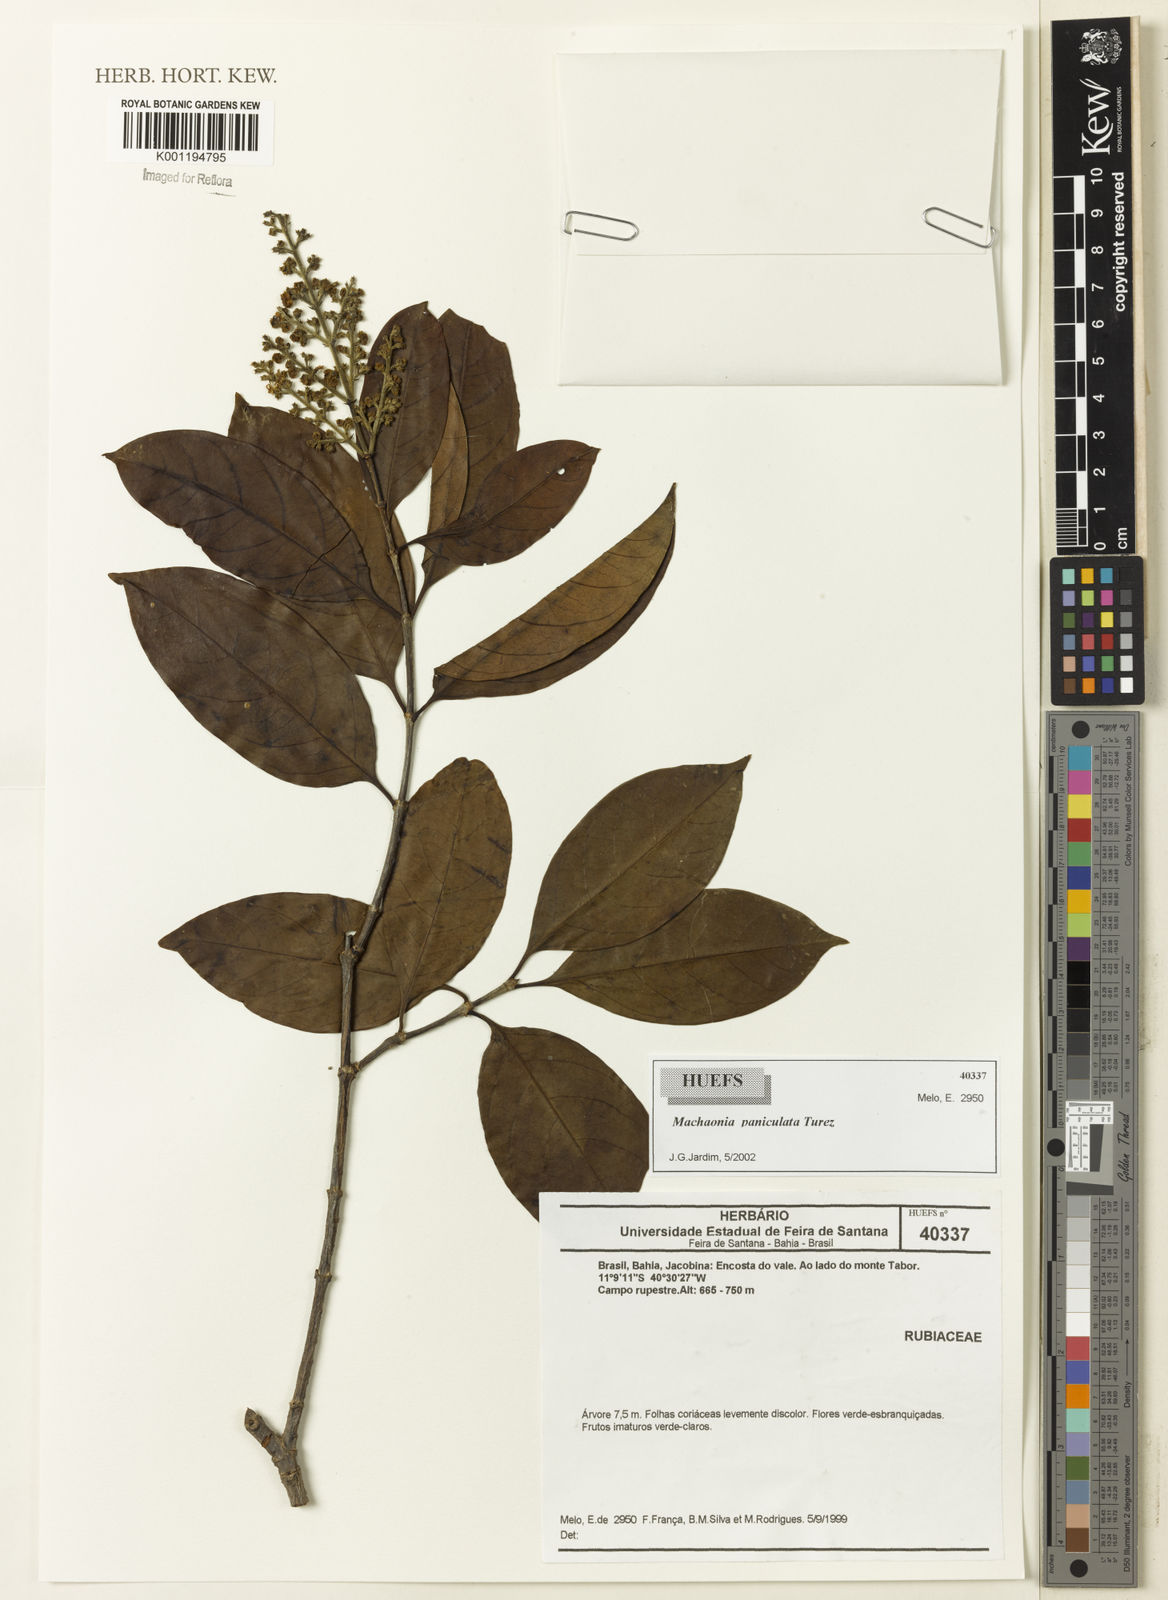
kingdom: Plantae
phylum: Tracheophyta
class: Magnoliopsida
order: Gentianales
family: Rubiaceae
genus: Machaonia
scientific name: Machaonia
